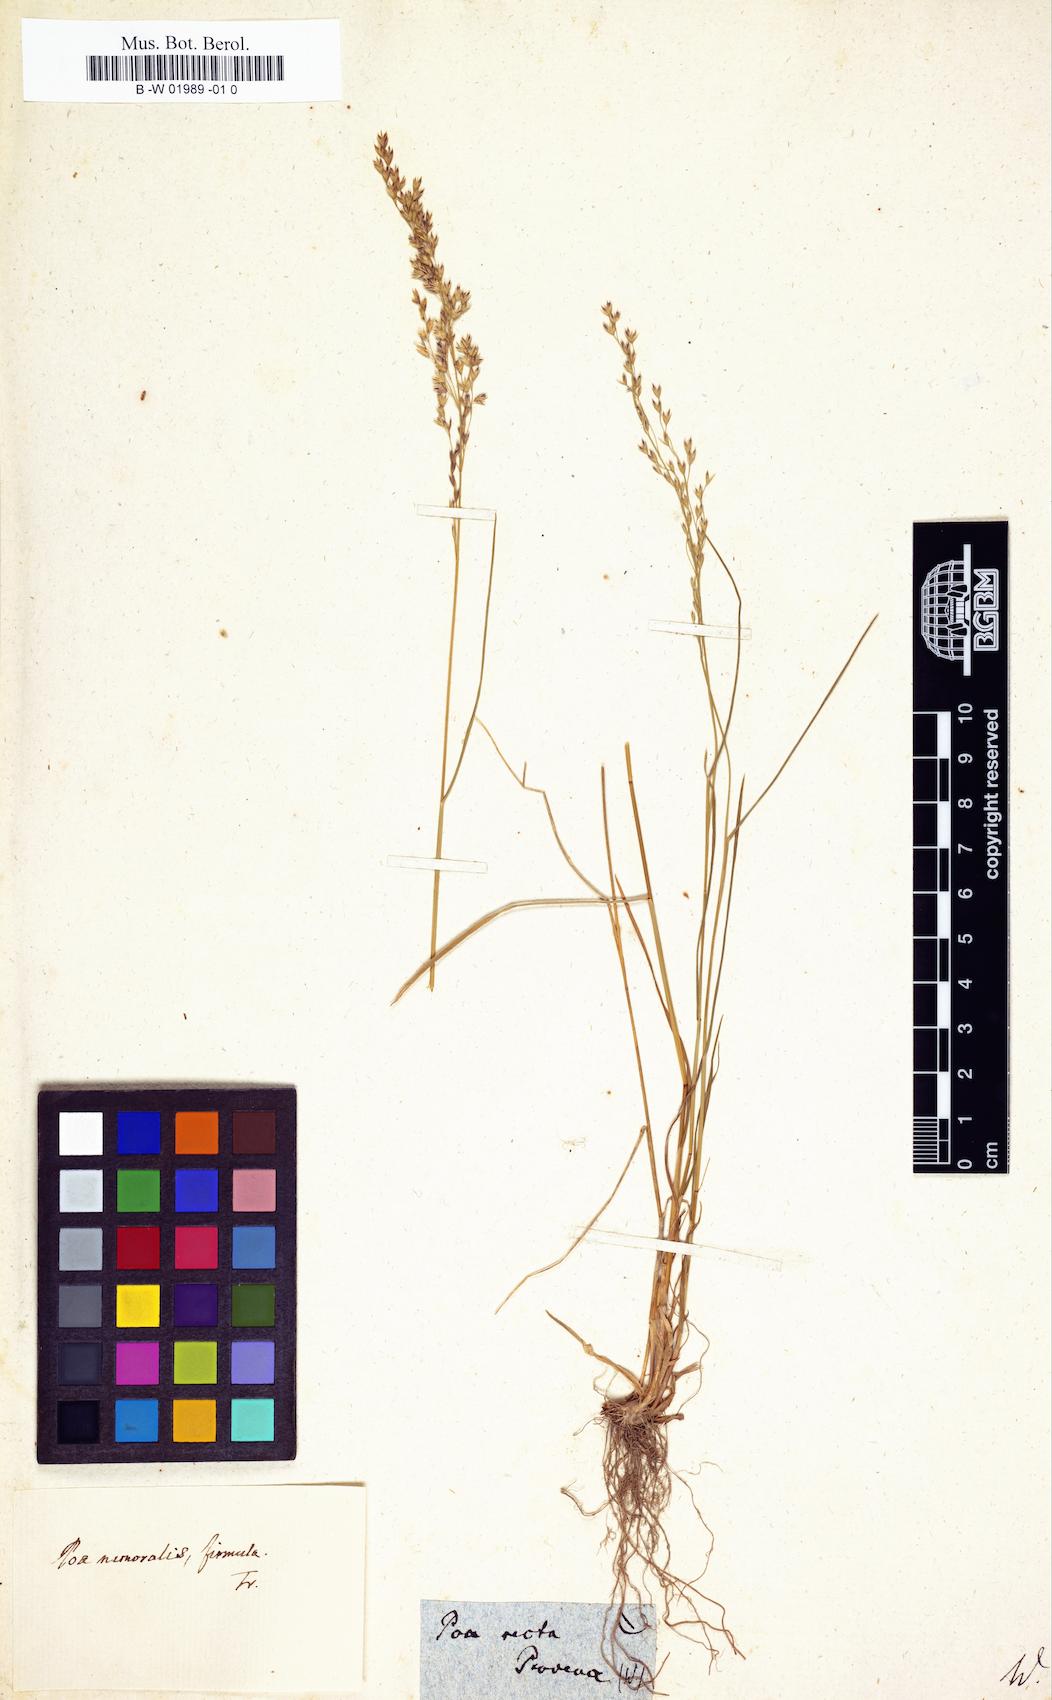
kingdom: Plantae
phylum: Tracheophyta
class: Liliopsida
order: Poales
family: Poaceae
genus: Poa
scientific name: Poa nemoralis
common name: Wood bluegrass
